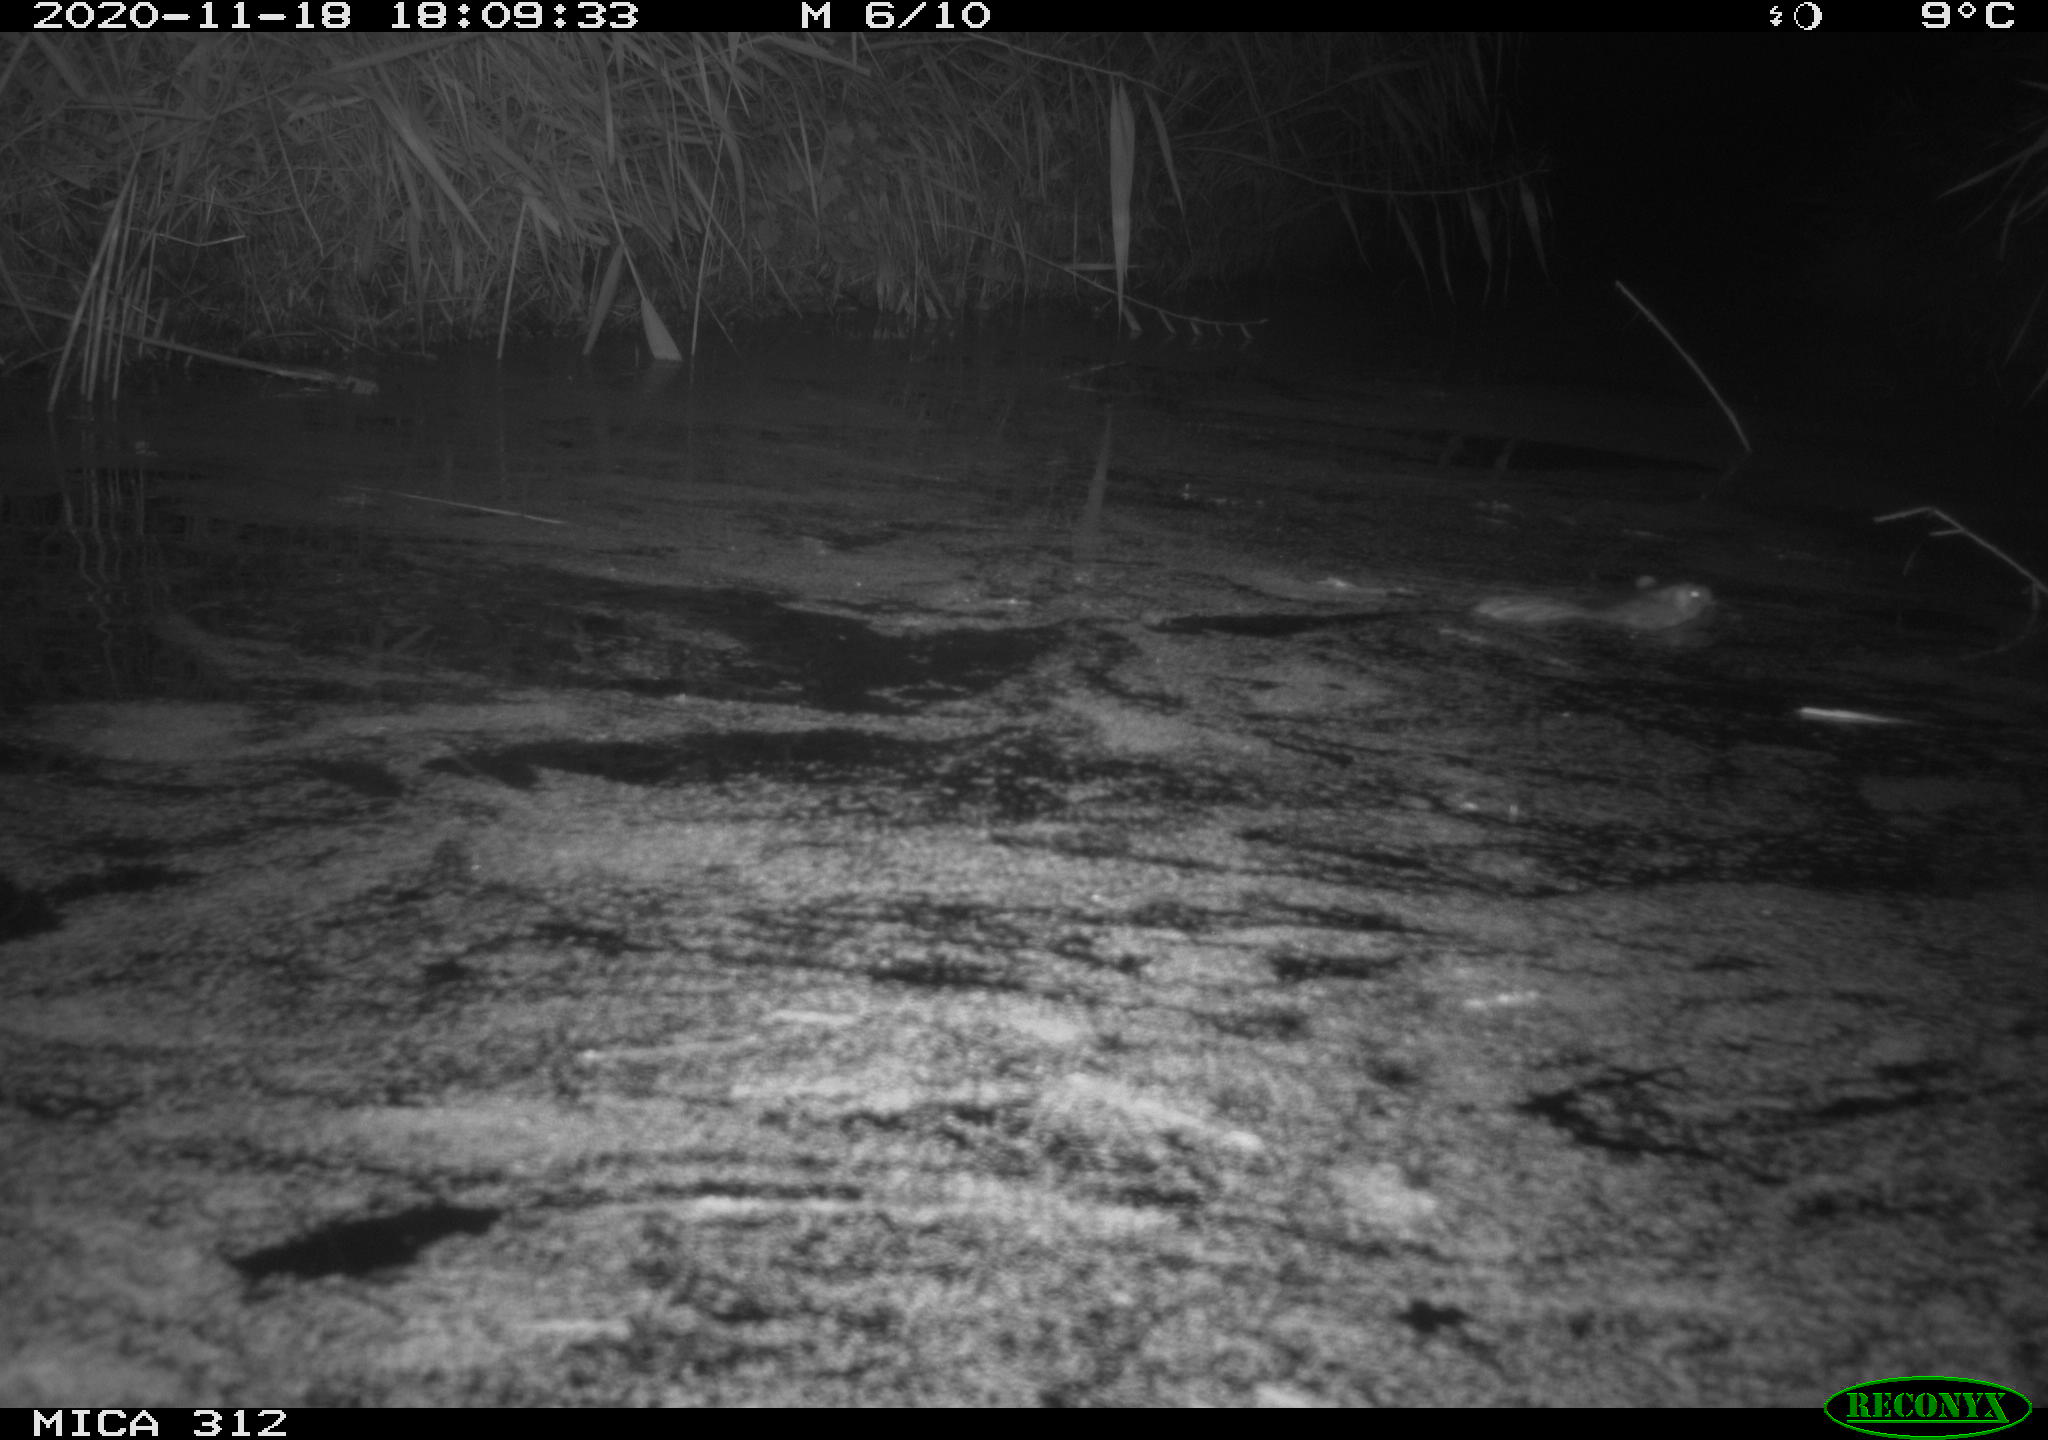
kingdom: Animalia
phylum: Chordata
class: Mammalia
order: Rodentia
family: Muridae
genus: Rattus
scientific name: Rattus norvegicus
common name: Brown rat
